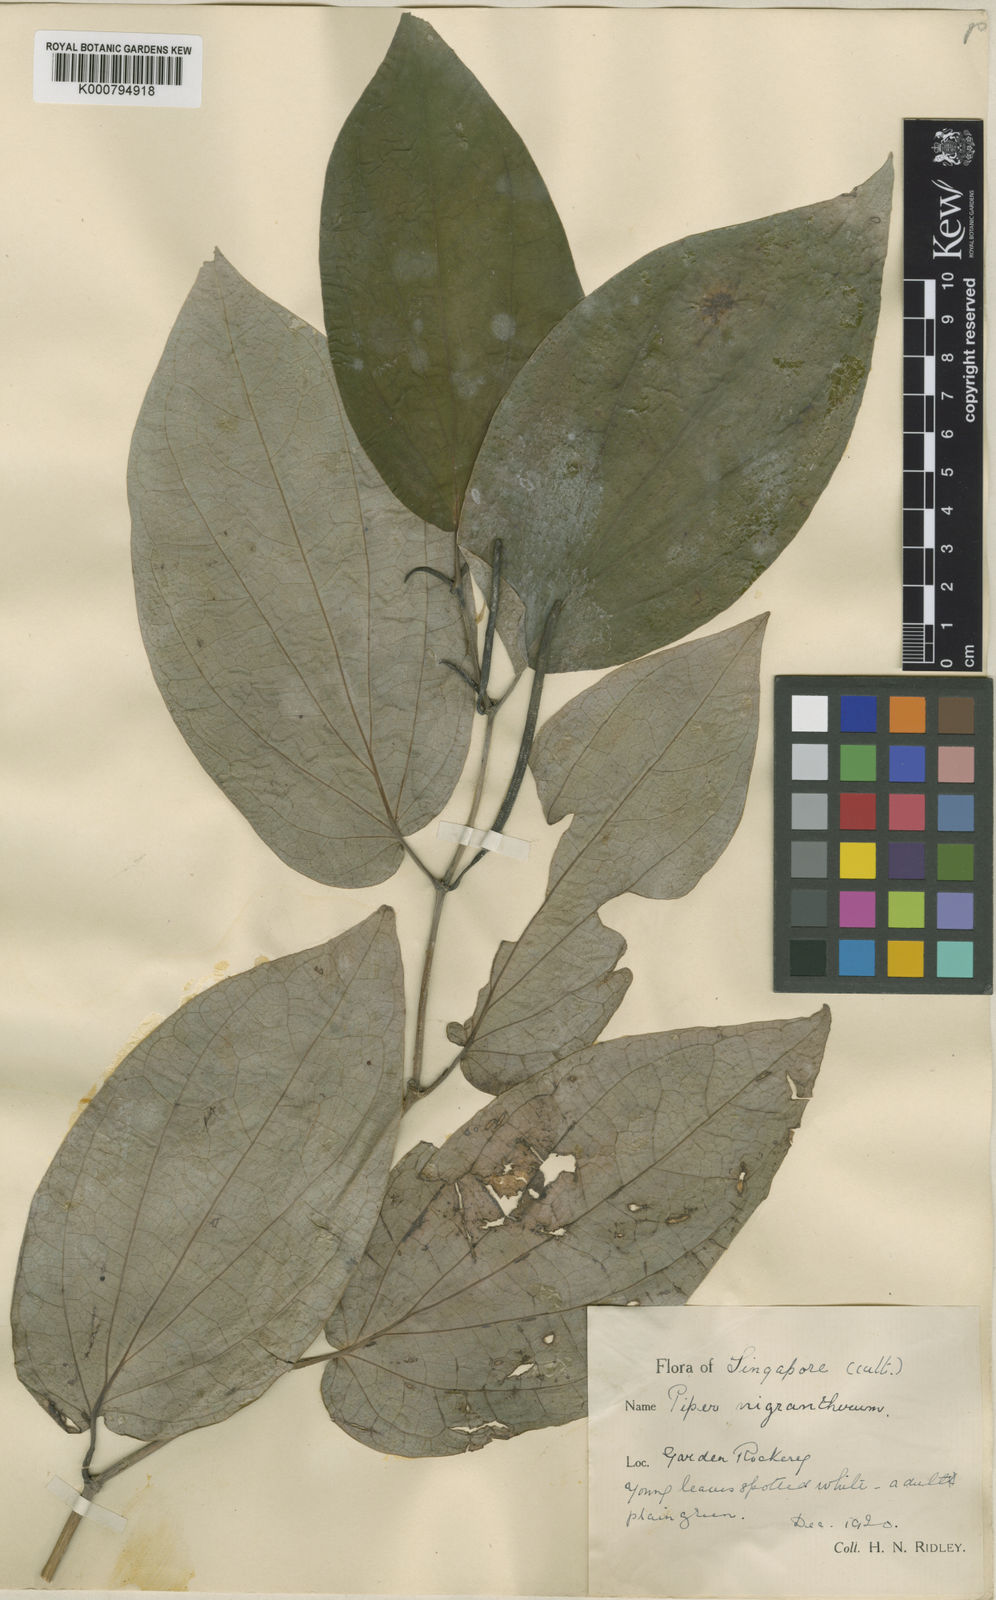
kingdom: Plantae
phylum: Tracheophyta
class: Magnoliopsida
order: Piperales
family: Piperaceae
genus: Piper
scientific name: Piper
